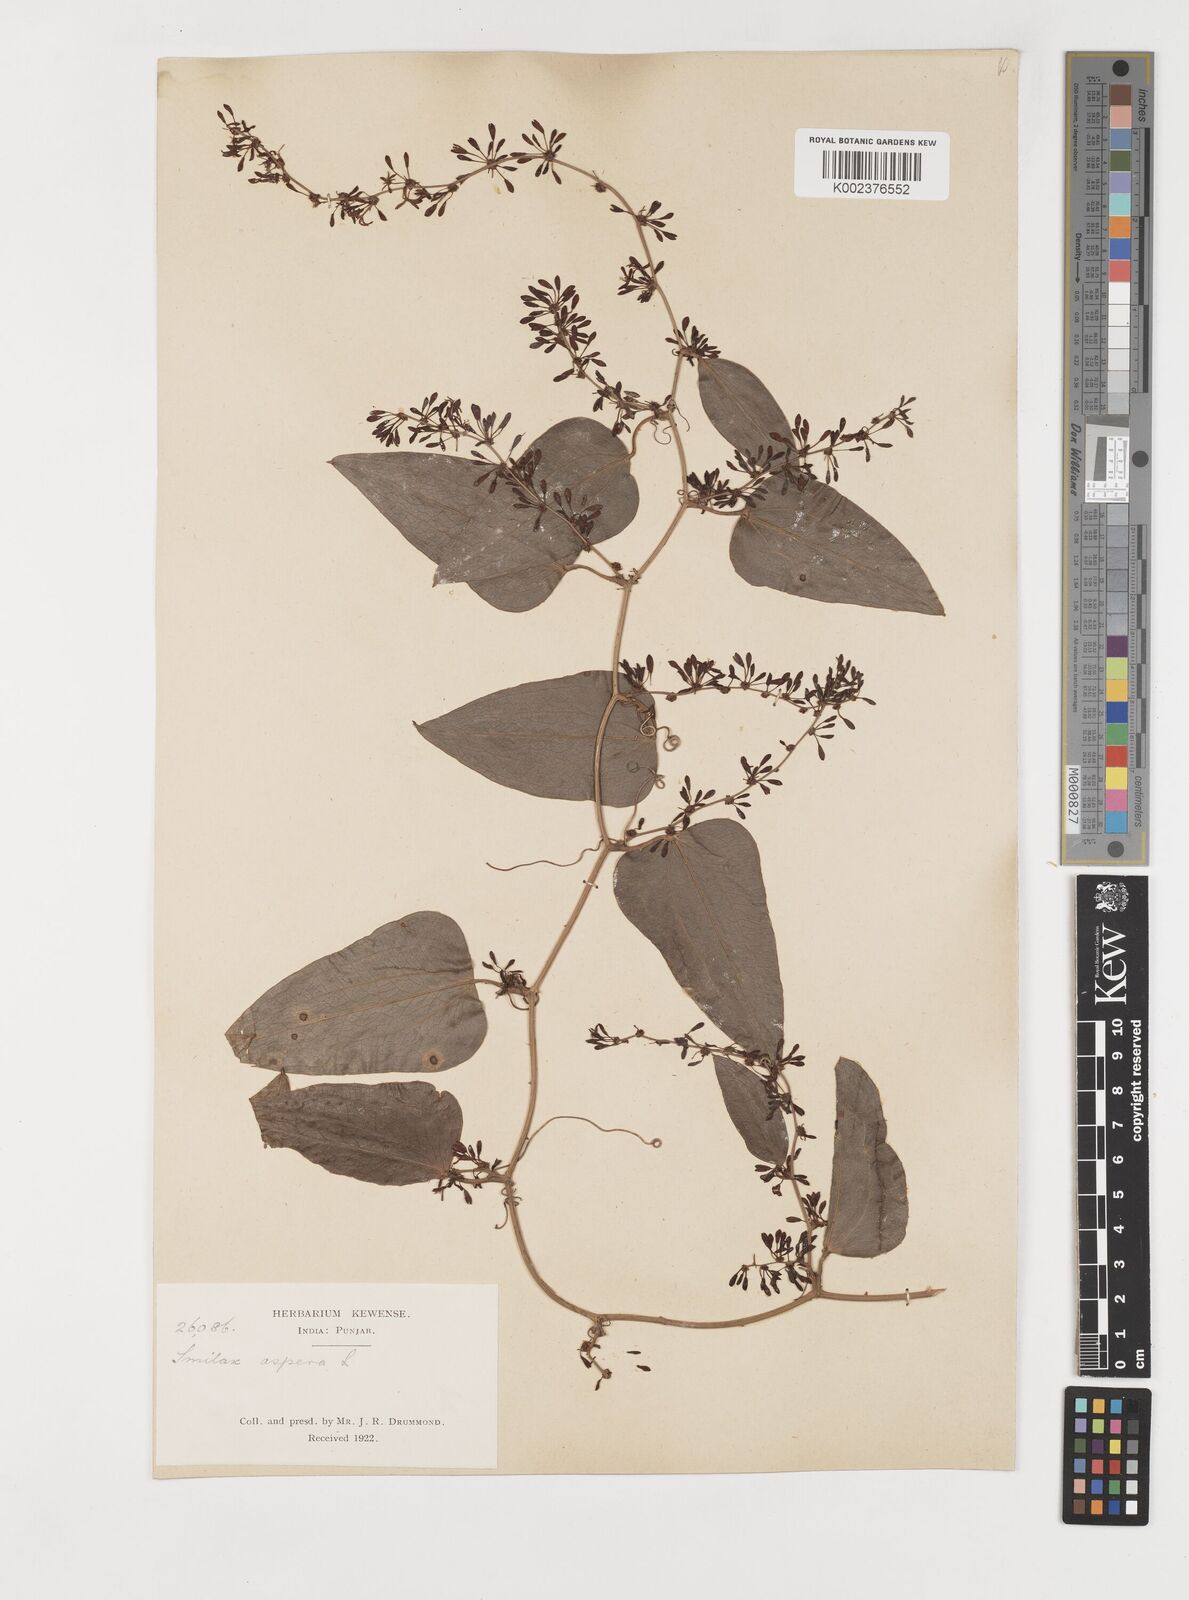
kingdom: Plantae
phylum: Tracheophyta
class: Liliopsida
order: Liliales
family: Smilacaceae
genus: Smilax
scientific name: Smilax aspera
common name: Common smilax
